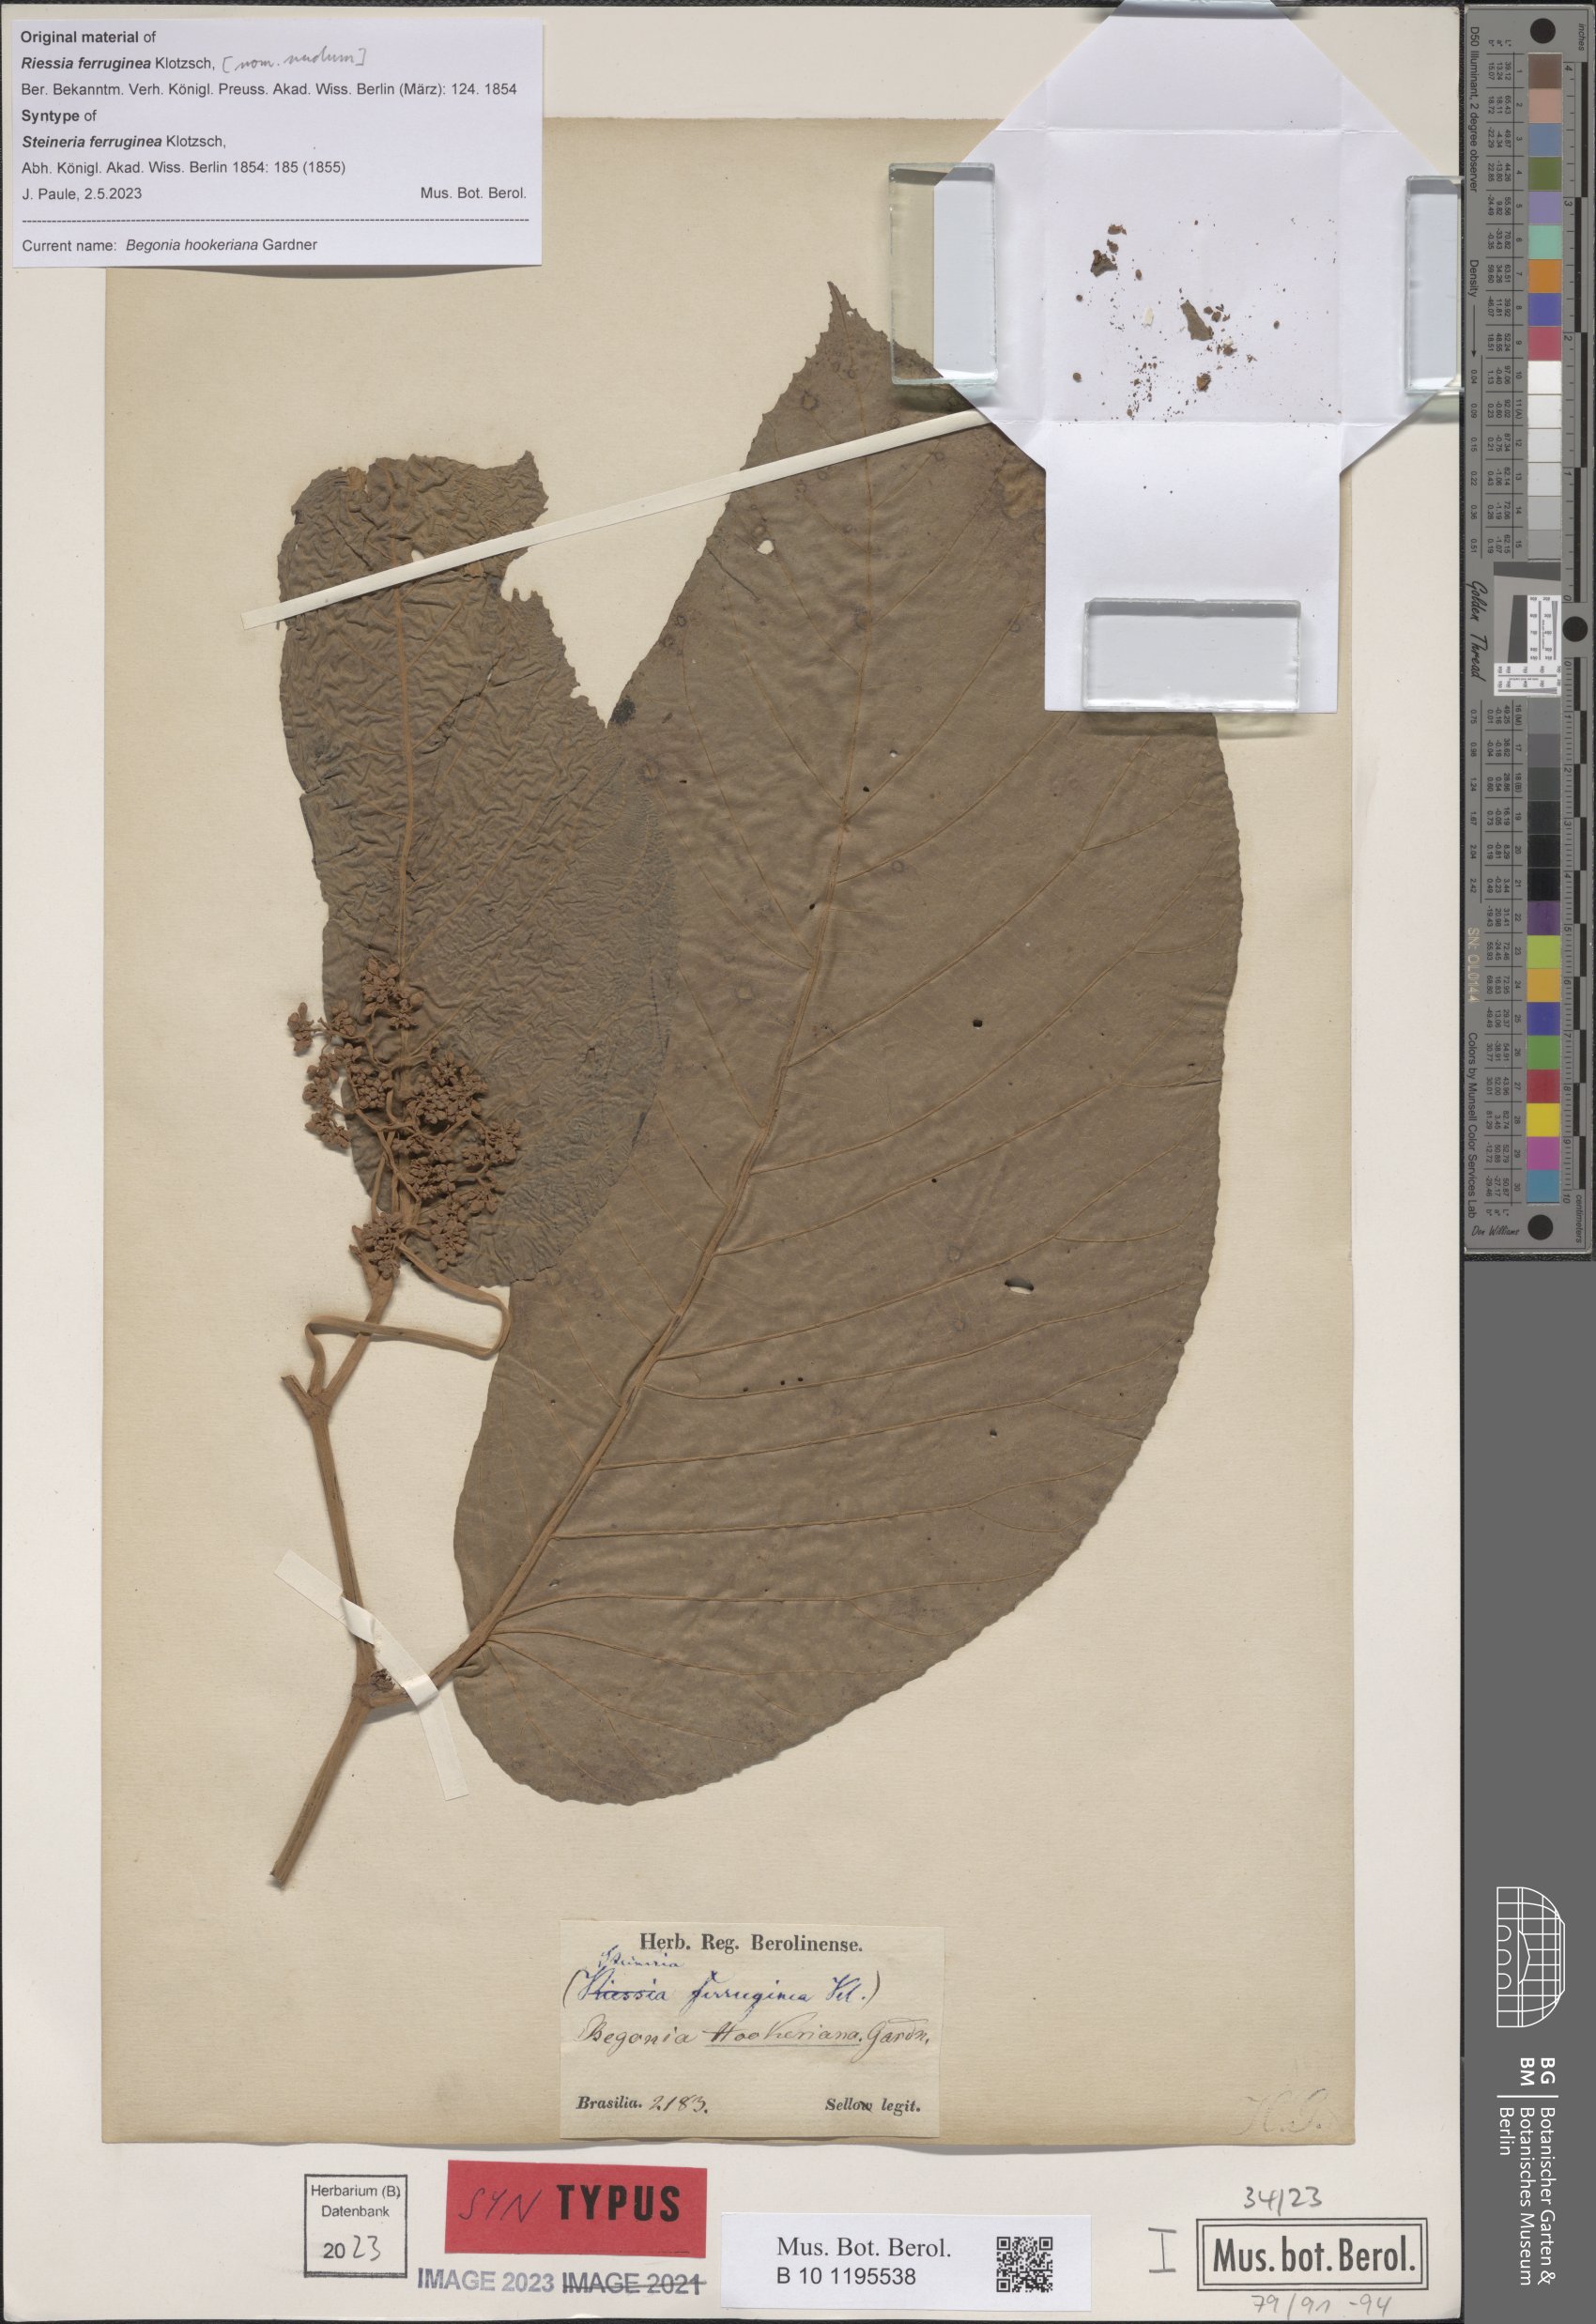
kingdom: Plantae
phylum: Tracheophyta
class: Magnoliopsida
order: Cucurbitales
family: Begoniaceae
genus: Begonia
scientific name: Begonia hookeriana
